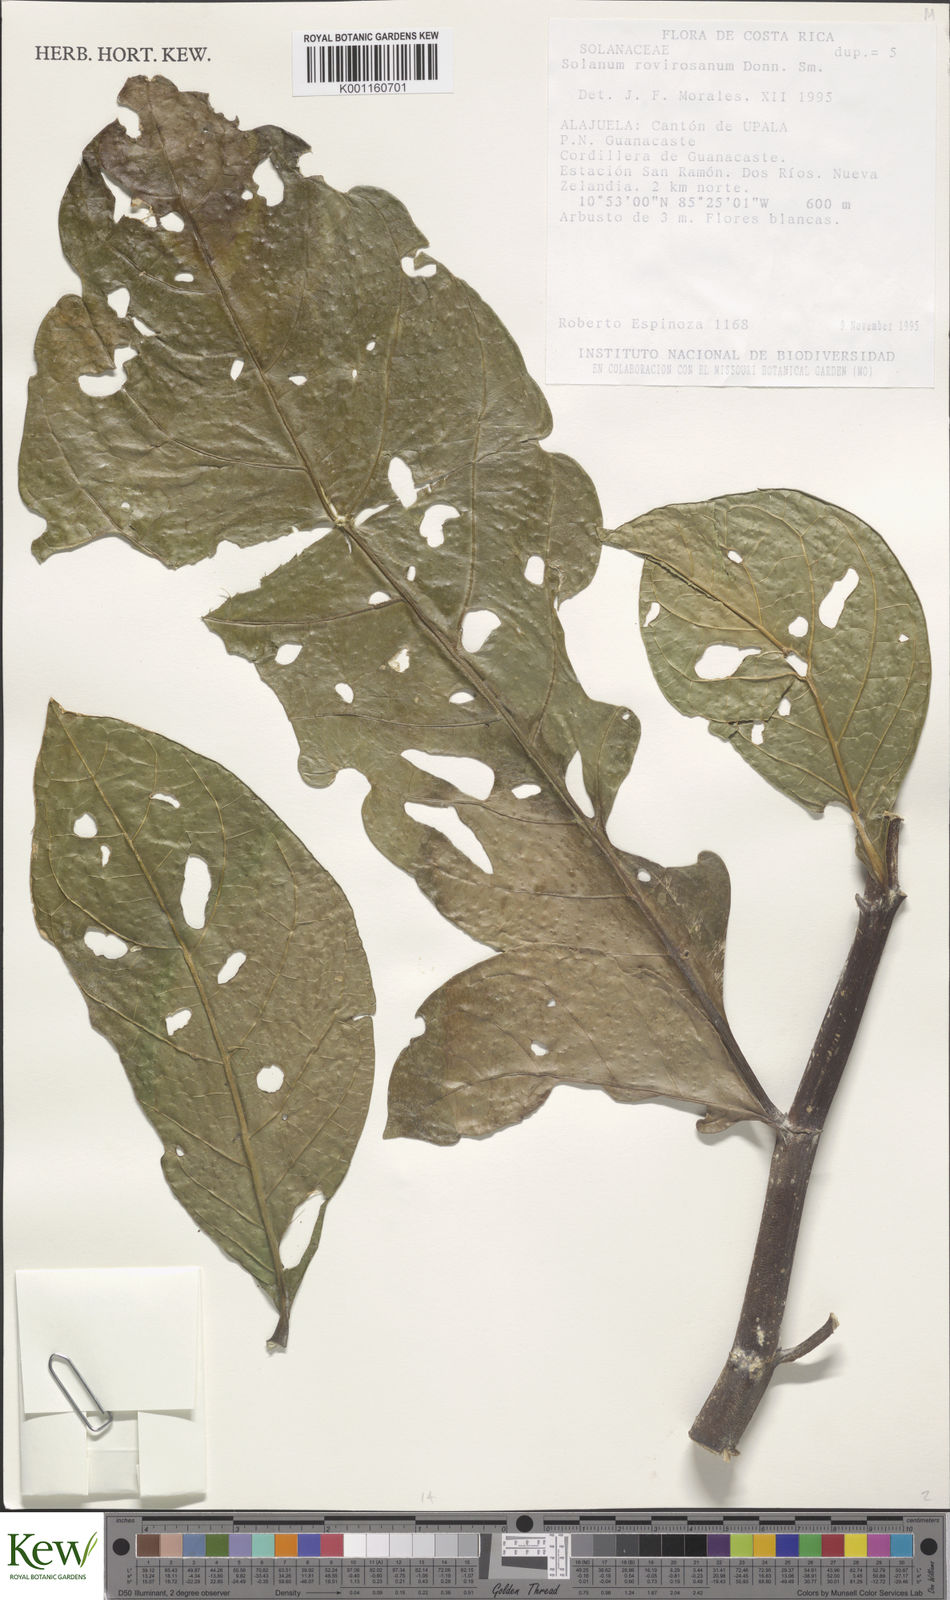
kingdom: Plantae
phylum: Tracheophyta
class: Magnoliopsida
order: Solanales
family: Solanaceae
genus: Solanum
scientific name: Solanum rovirosanum
